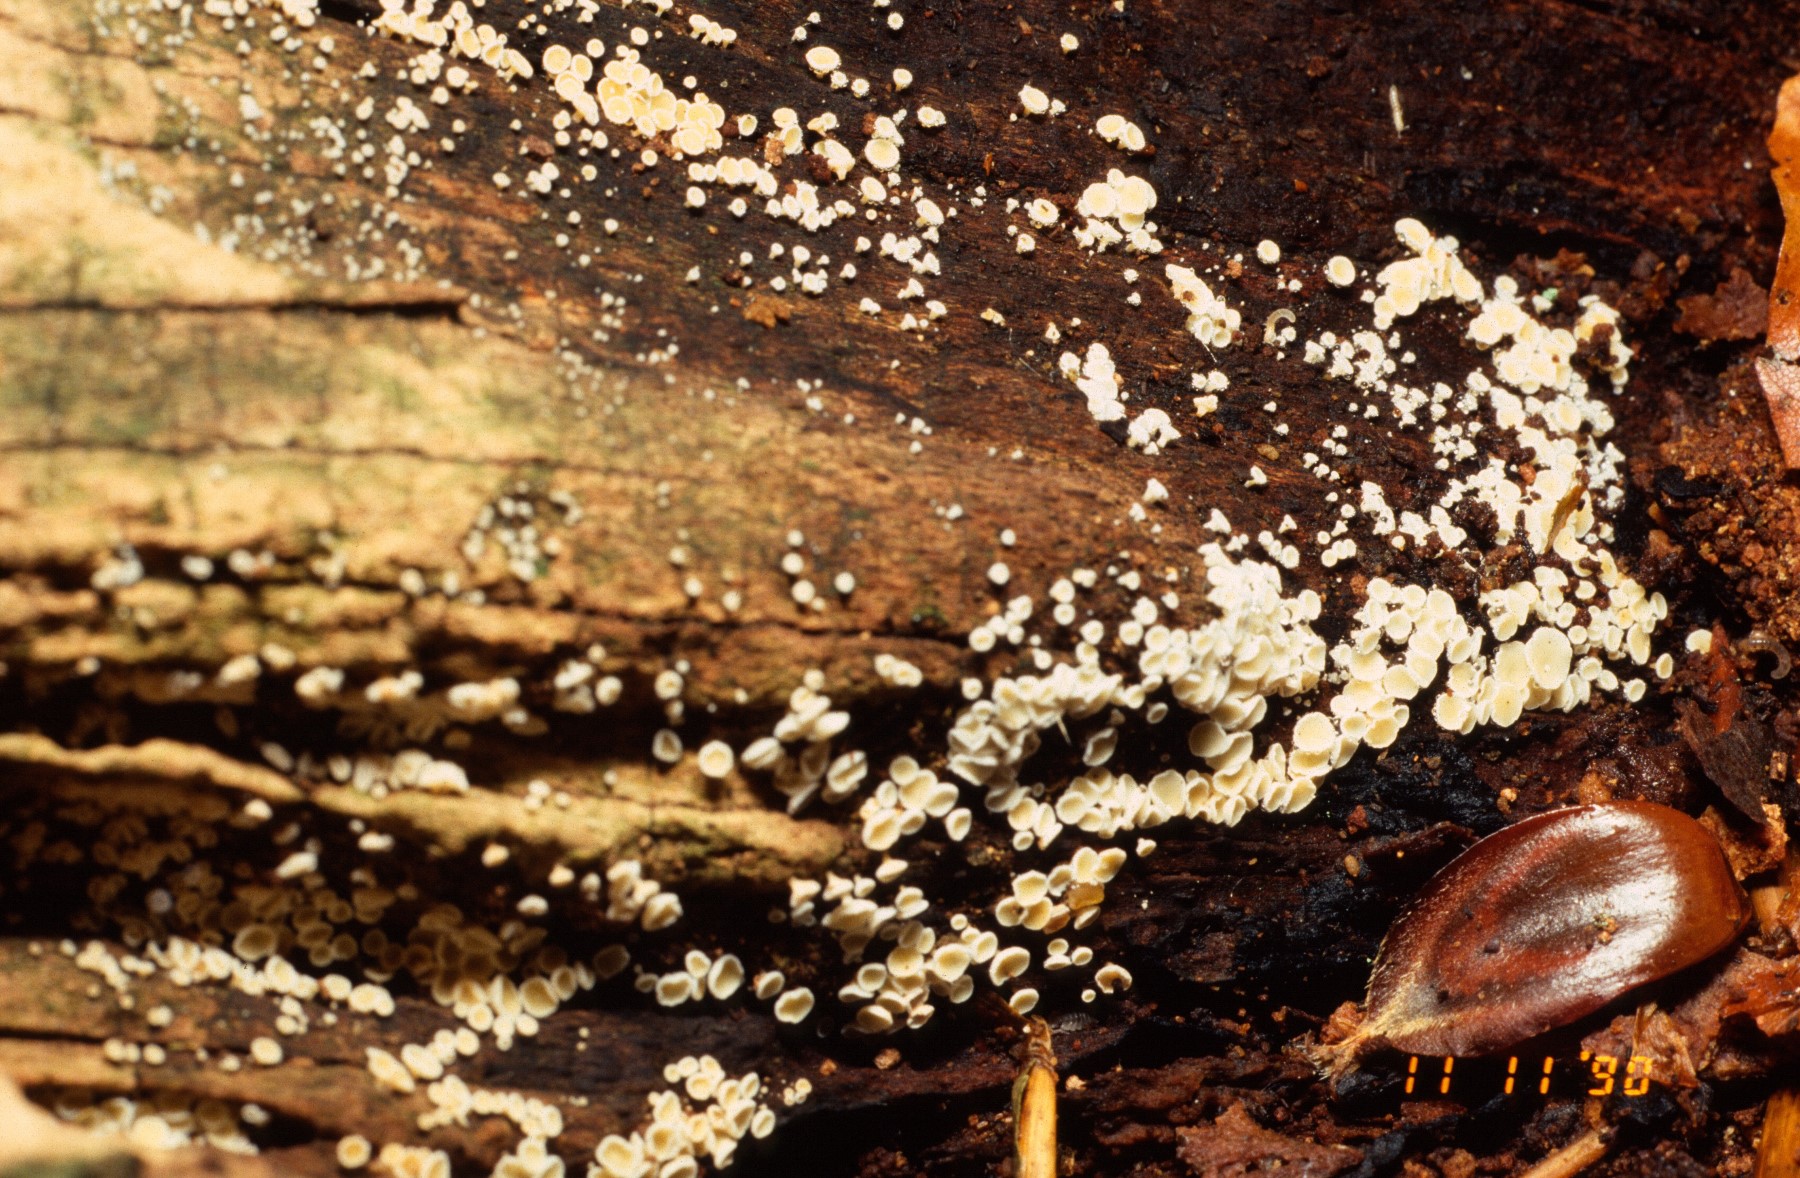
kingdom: Fungi
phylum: Ascomycota
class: Leotiomycetes
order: Helotiales
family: Lachnaceae
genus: Dasyscyphella
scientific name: Dasyscyphella nivea
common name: hvid frynseskive
